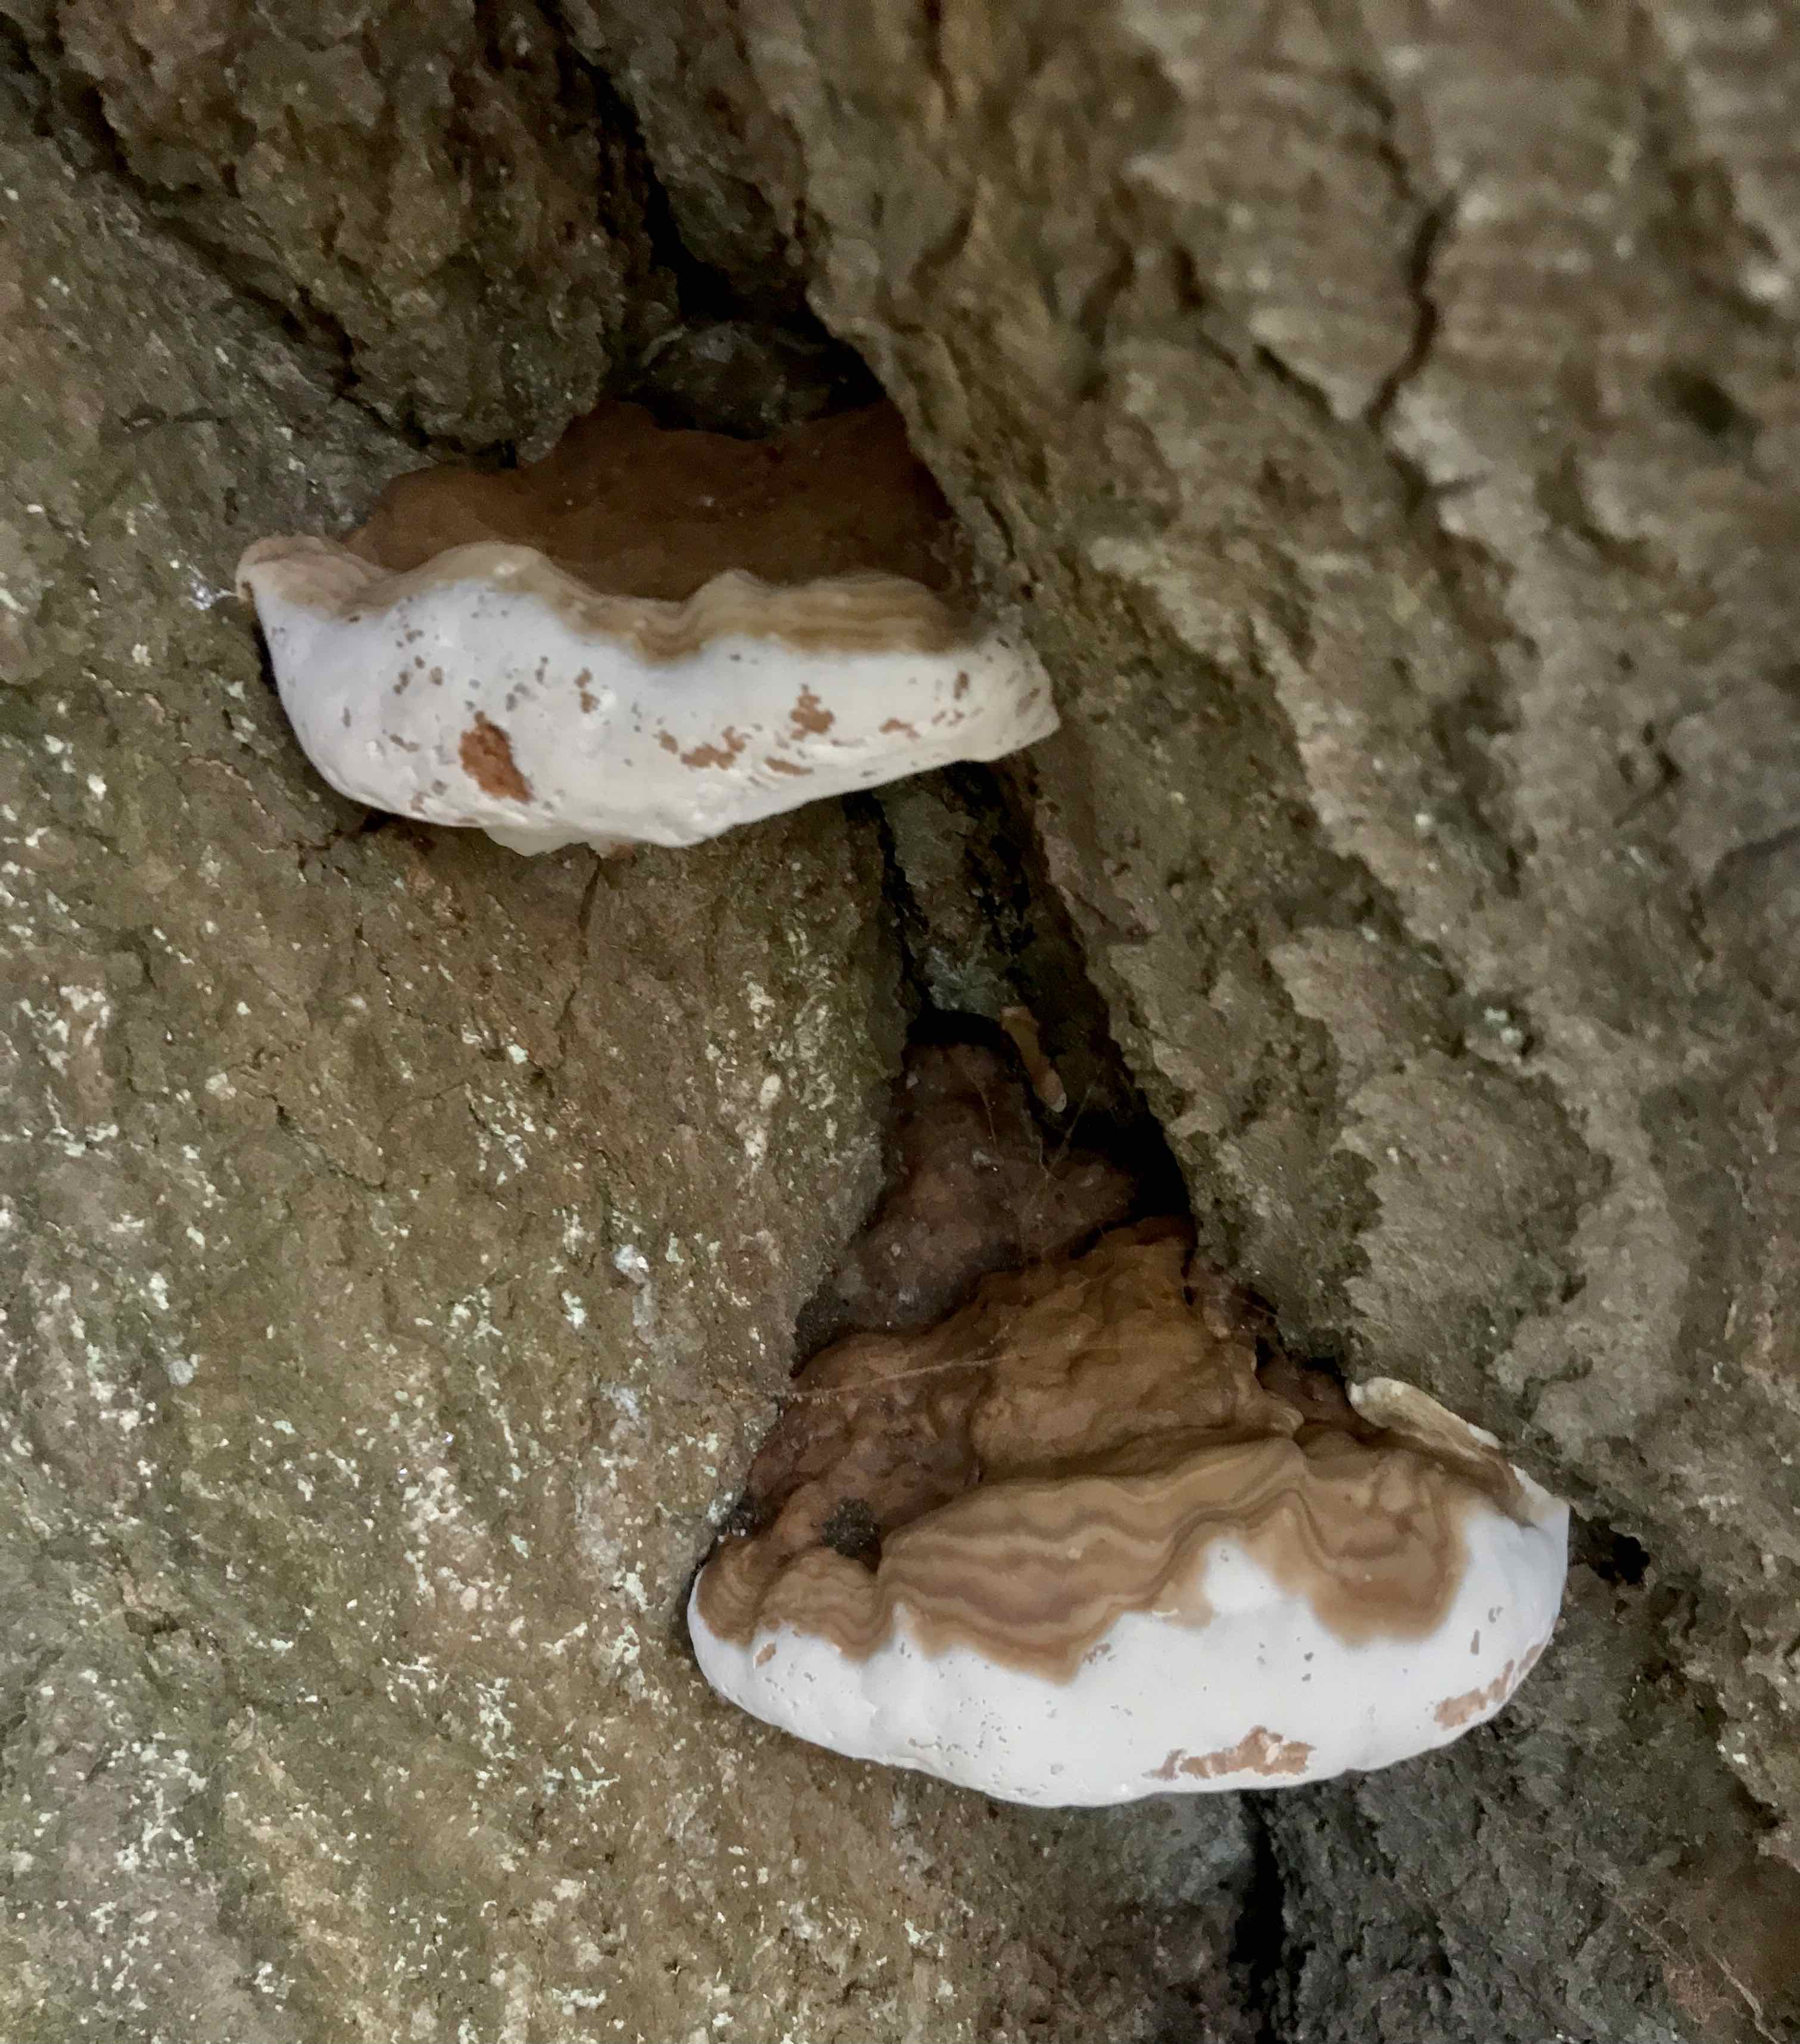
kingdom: Fungi
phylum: Basidiomycota
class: Agaricomycetes
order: Polyporales
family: Polyporaceae
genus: Ganoderma
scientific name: Ganoderma resinaceum
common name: gyldenbrun lakporesvamp
